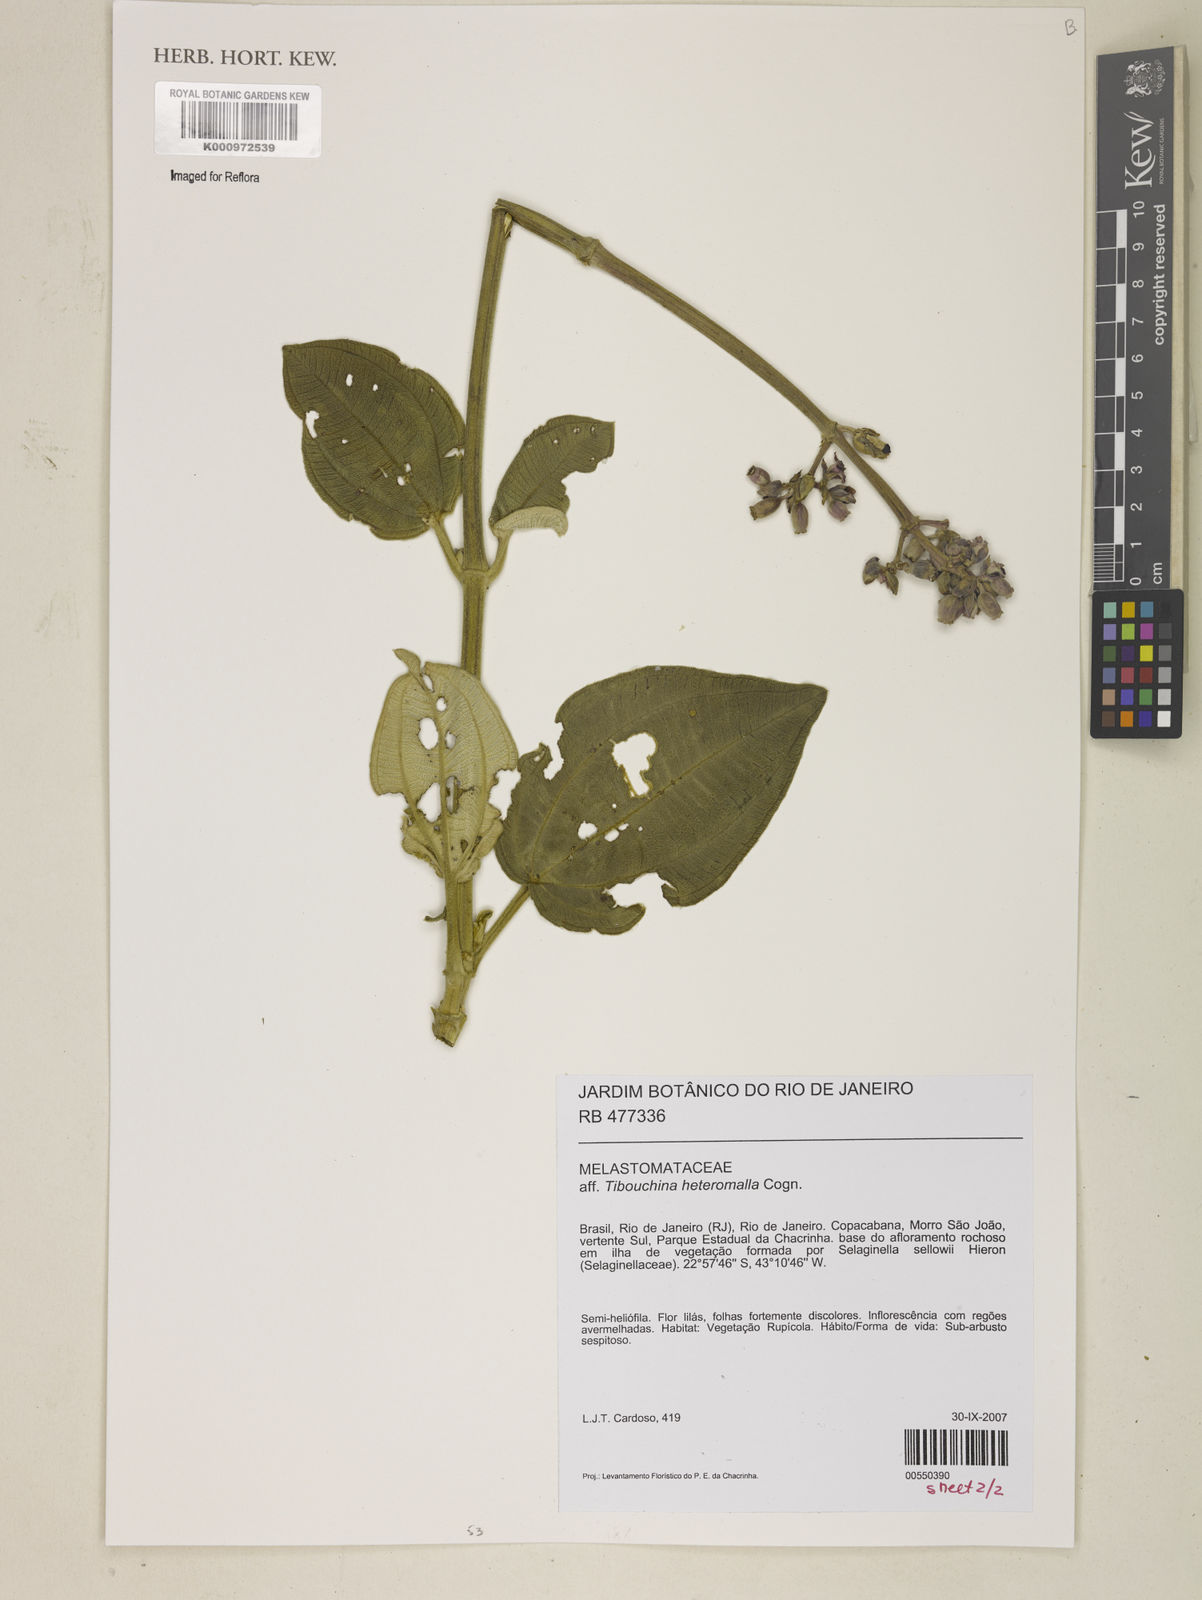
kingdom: Plantae
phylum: Tracheophyta
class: Magnoliopsida
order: Myrtales
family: Melastomataceae
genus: Pleroma
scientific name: Pleroma heteromallum
